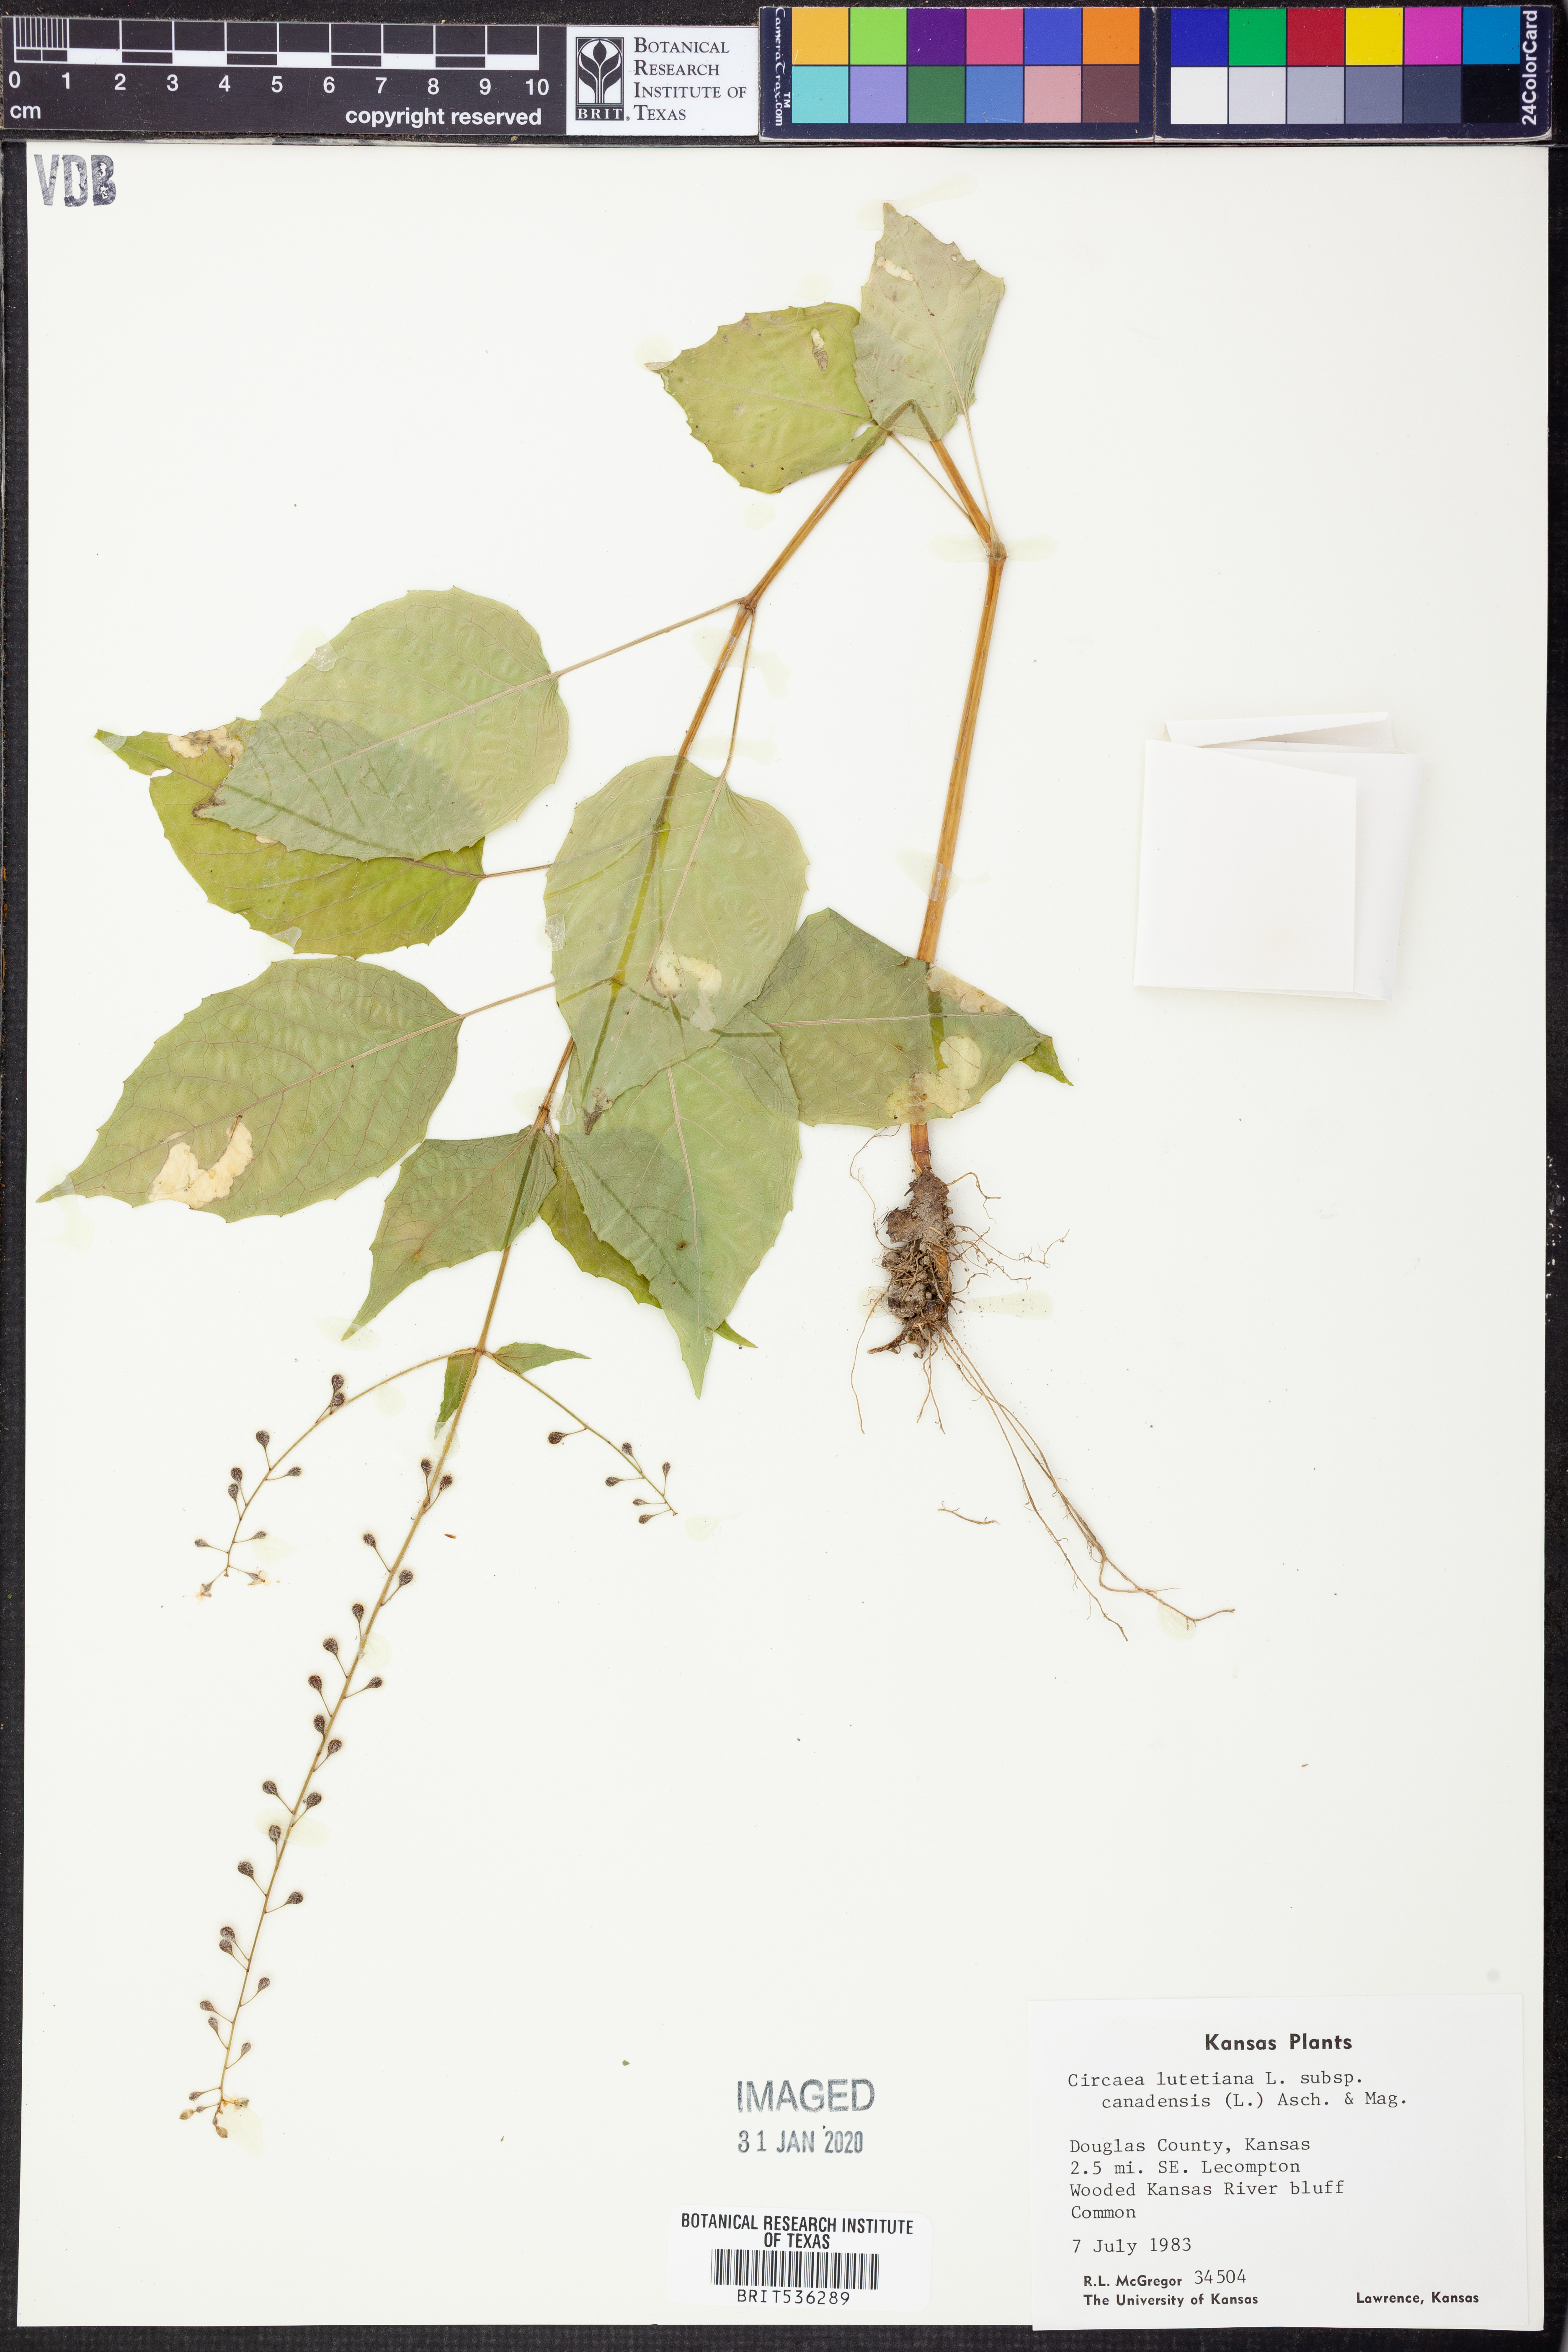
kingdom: Plantae
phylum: Tracheophyta
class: Magnoliopsida
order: Myrtales
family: Onagraceae
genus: Circaea
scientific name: Circaea canadensis
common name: Broad-leaved enchanter's nightshade
